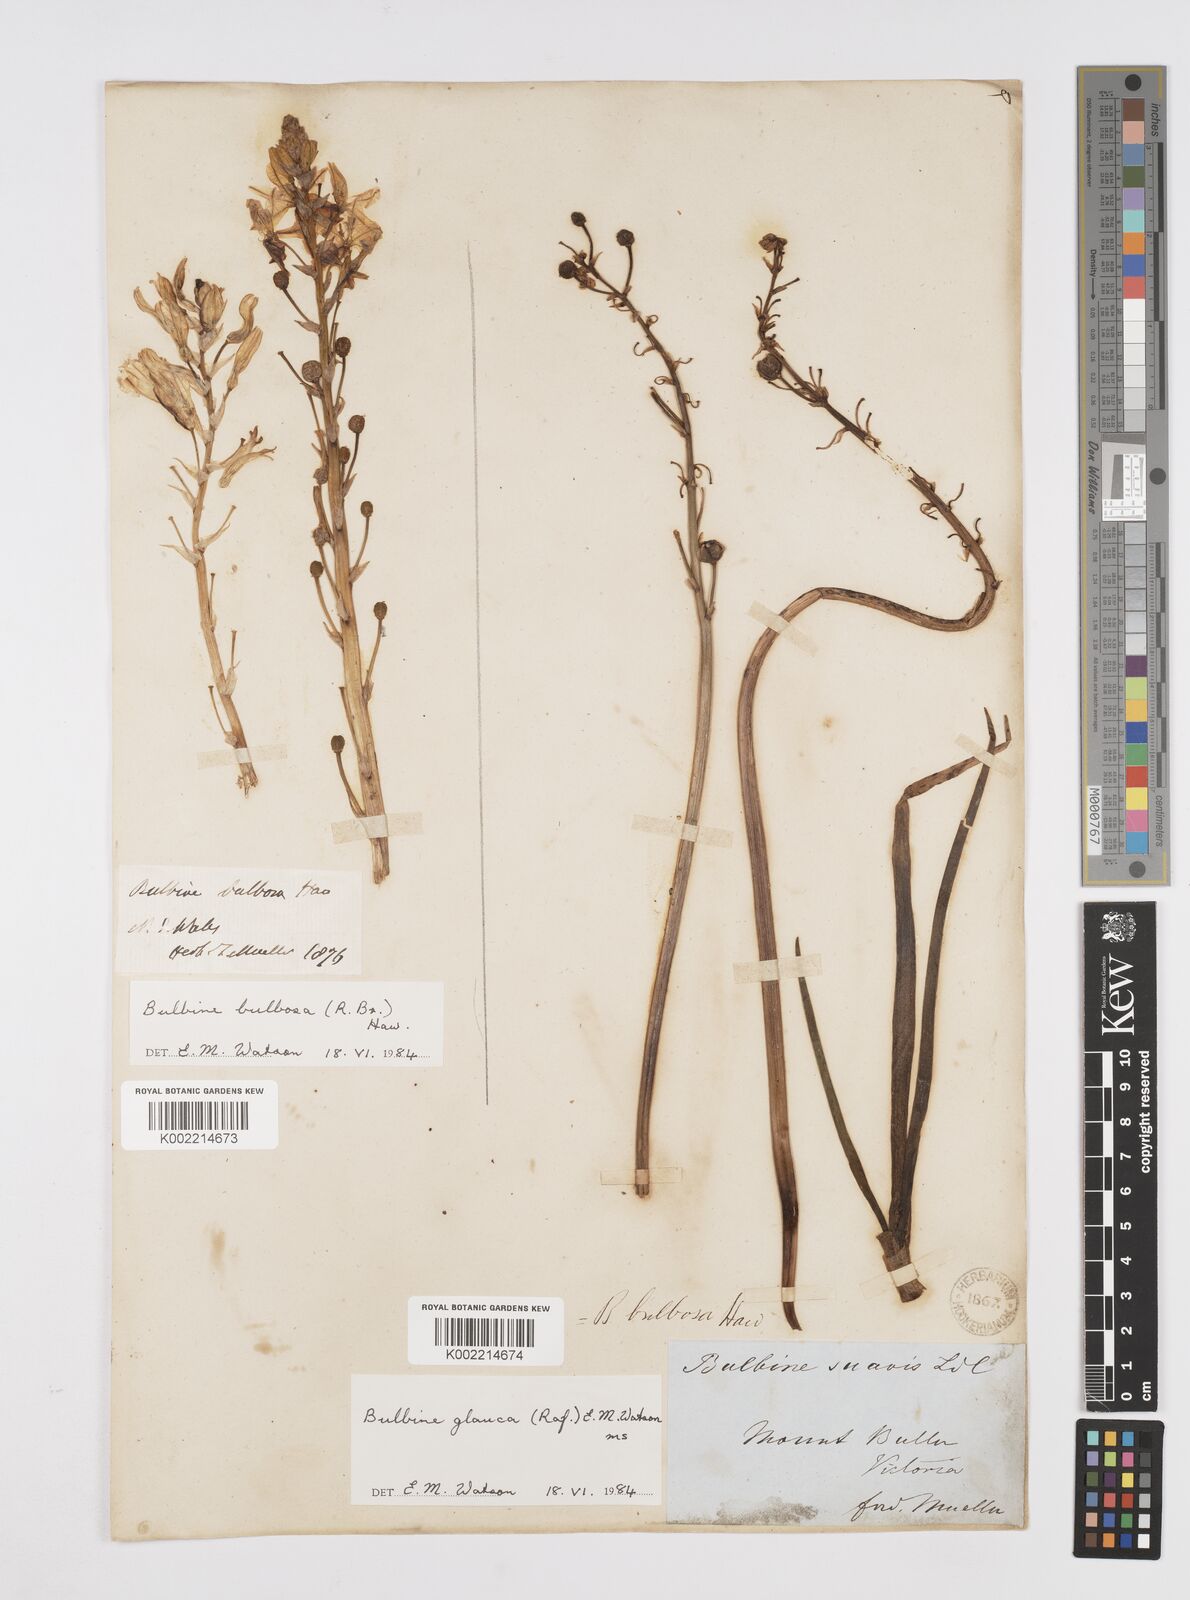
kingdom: Plantae
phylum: Tracheophyta
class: Liliopsida
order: Asparagales
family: Asphodelaceae
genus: Bulbine
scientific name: Bulbine bulbosa
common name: Golden-lily
